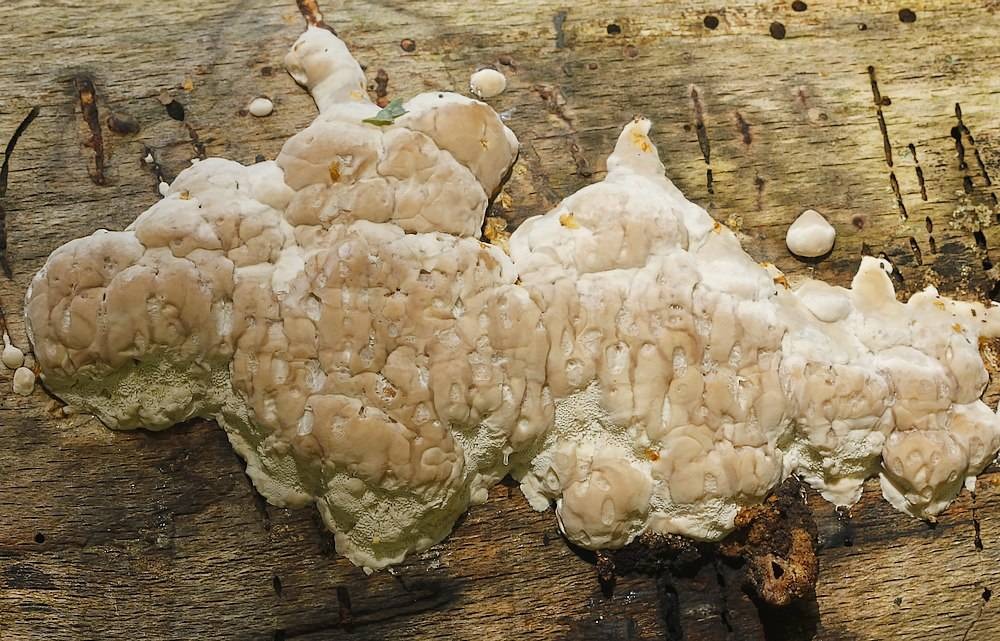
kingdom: Fungi
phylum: Basidiomycota
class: Agaricomycetes
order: Polyporales
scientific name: Polyporales
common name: poresvampordenen
